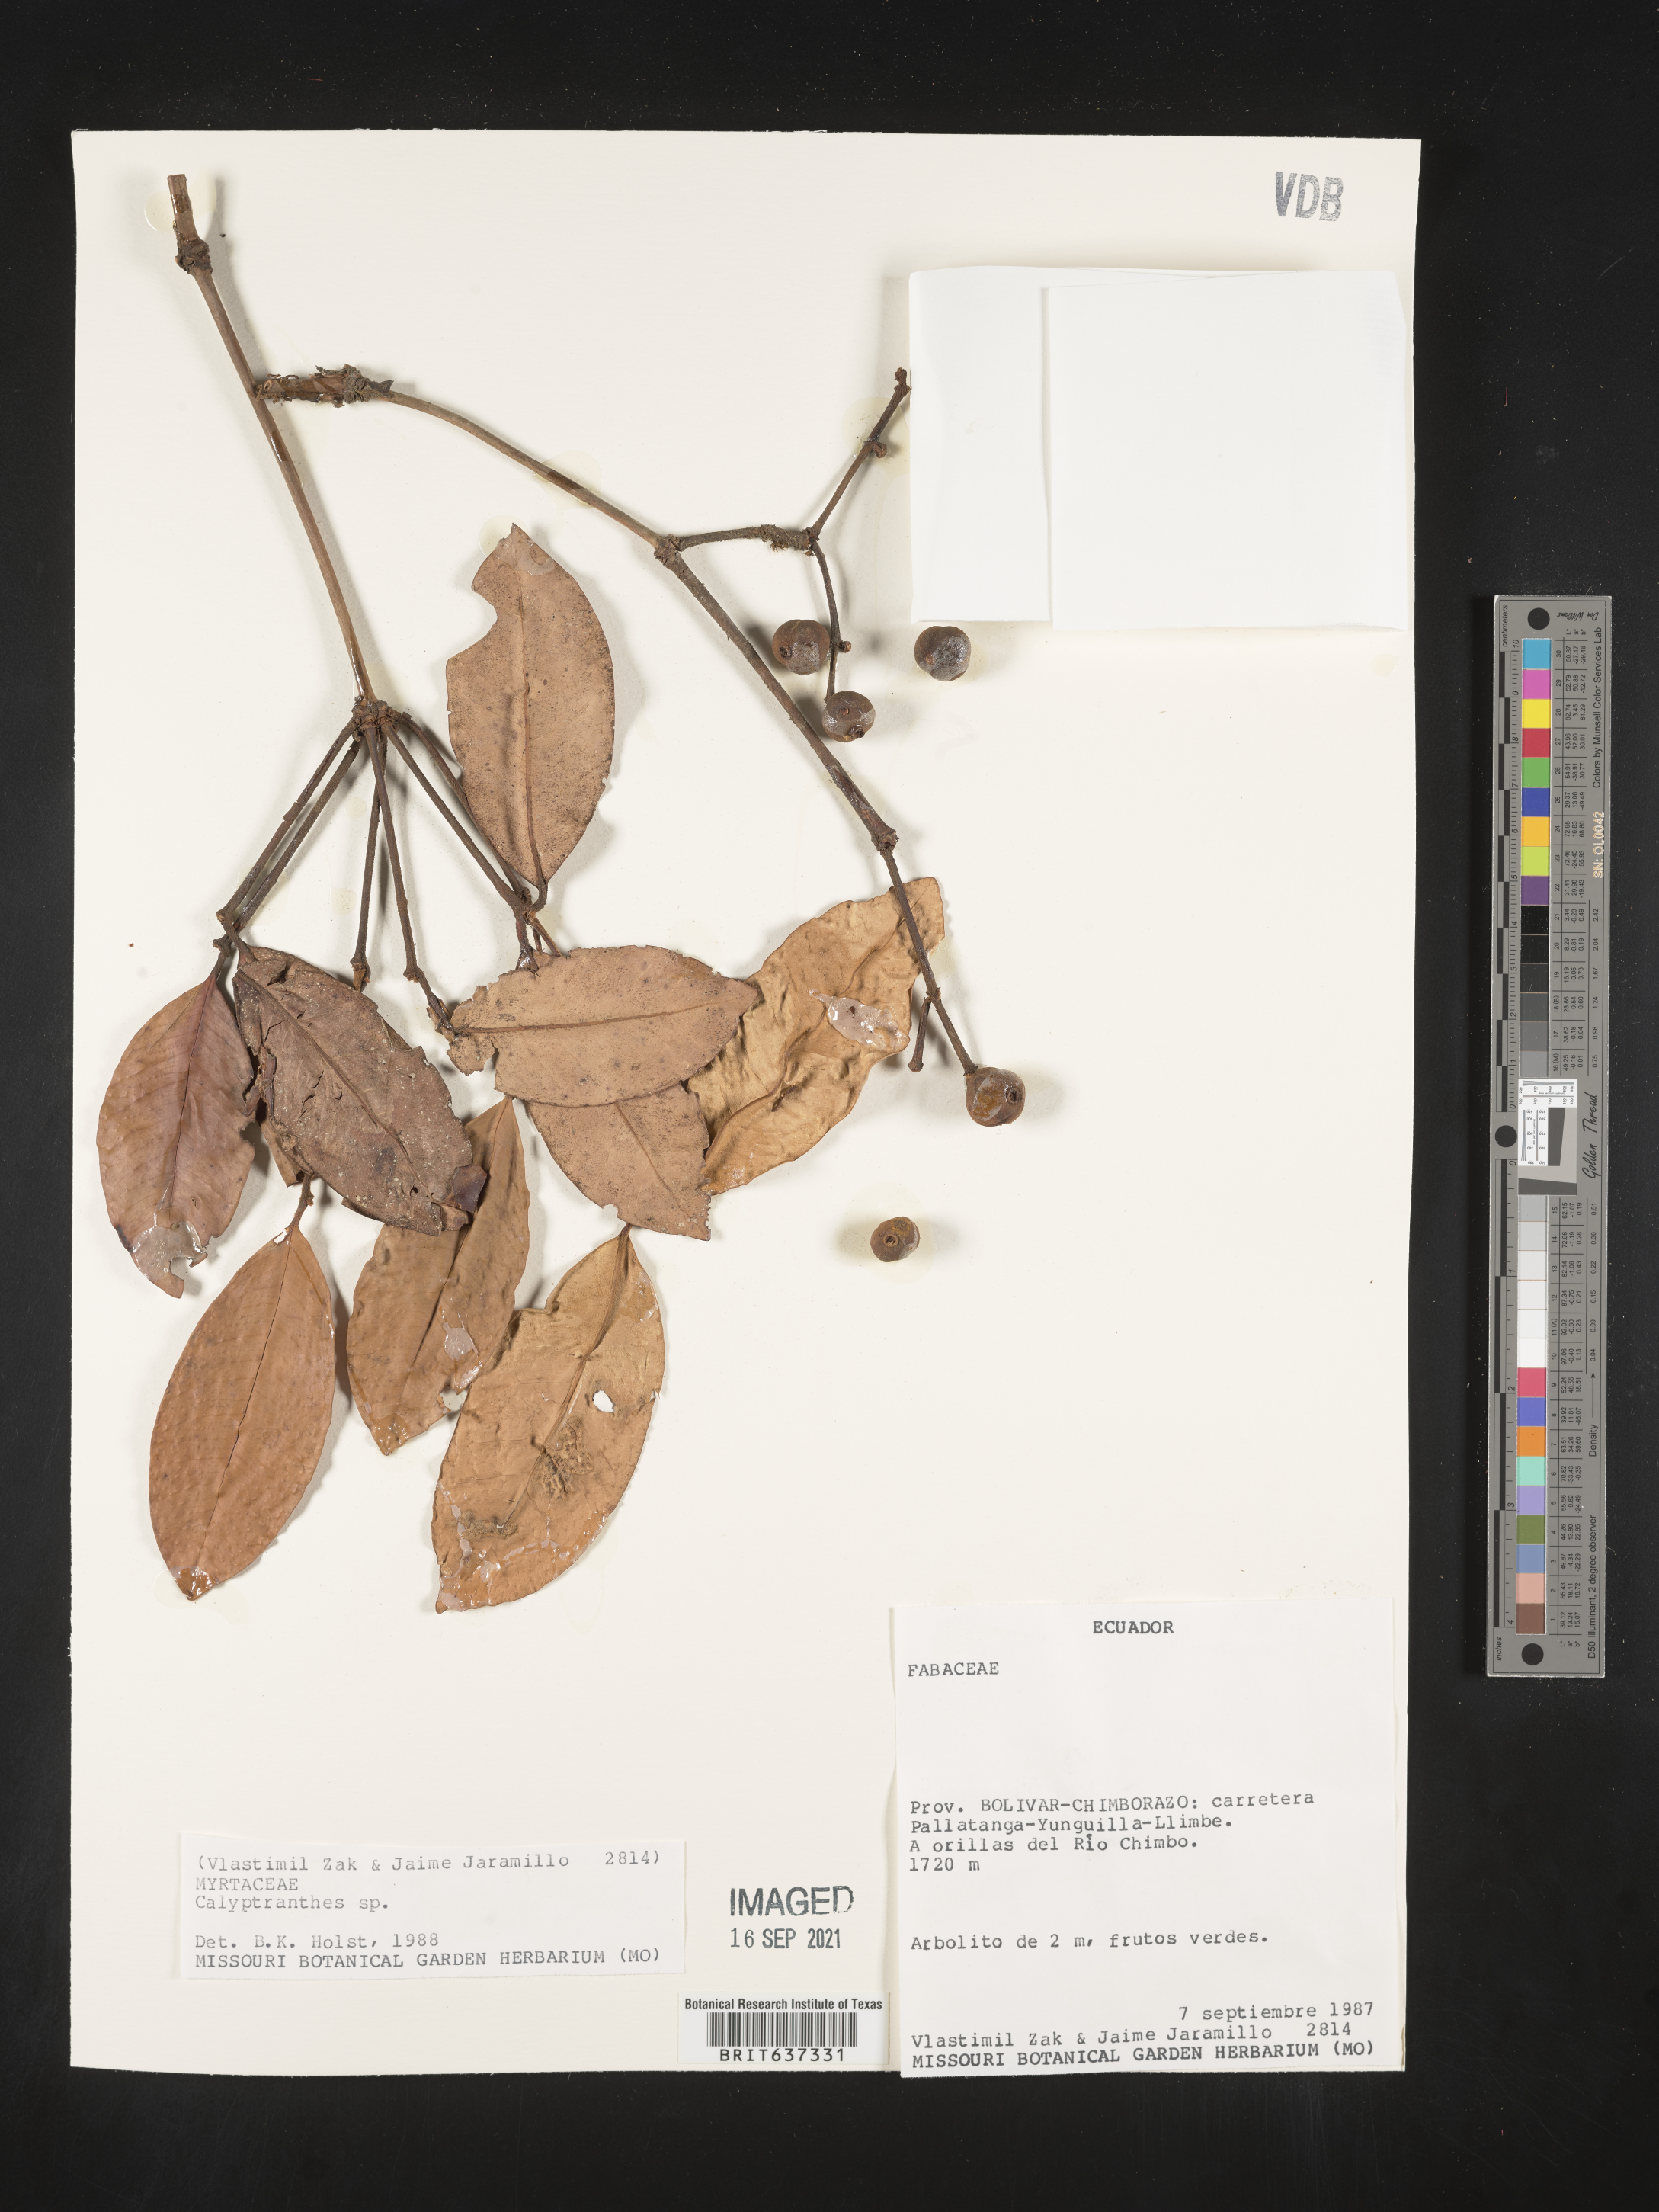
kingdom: Plantae
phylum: Tracheophyta
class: Magnoliopsida
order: Myrtales
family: Myrtaceae
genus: Calyptranthes
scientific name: Calyptranthes
